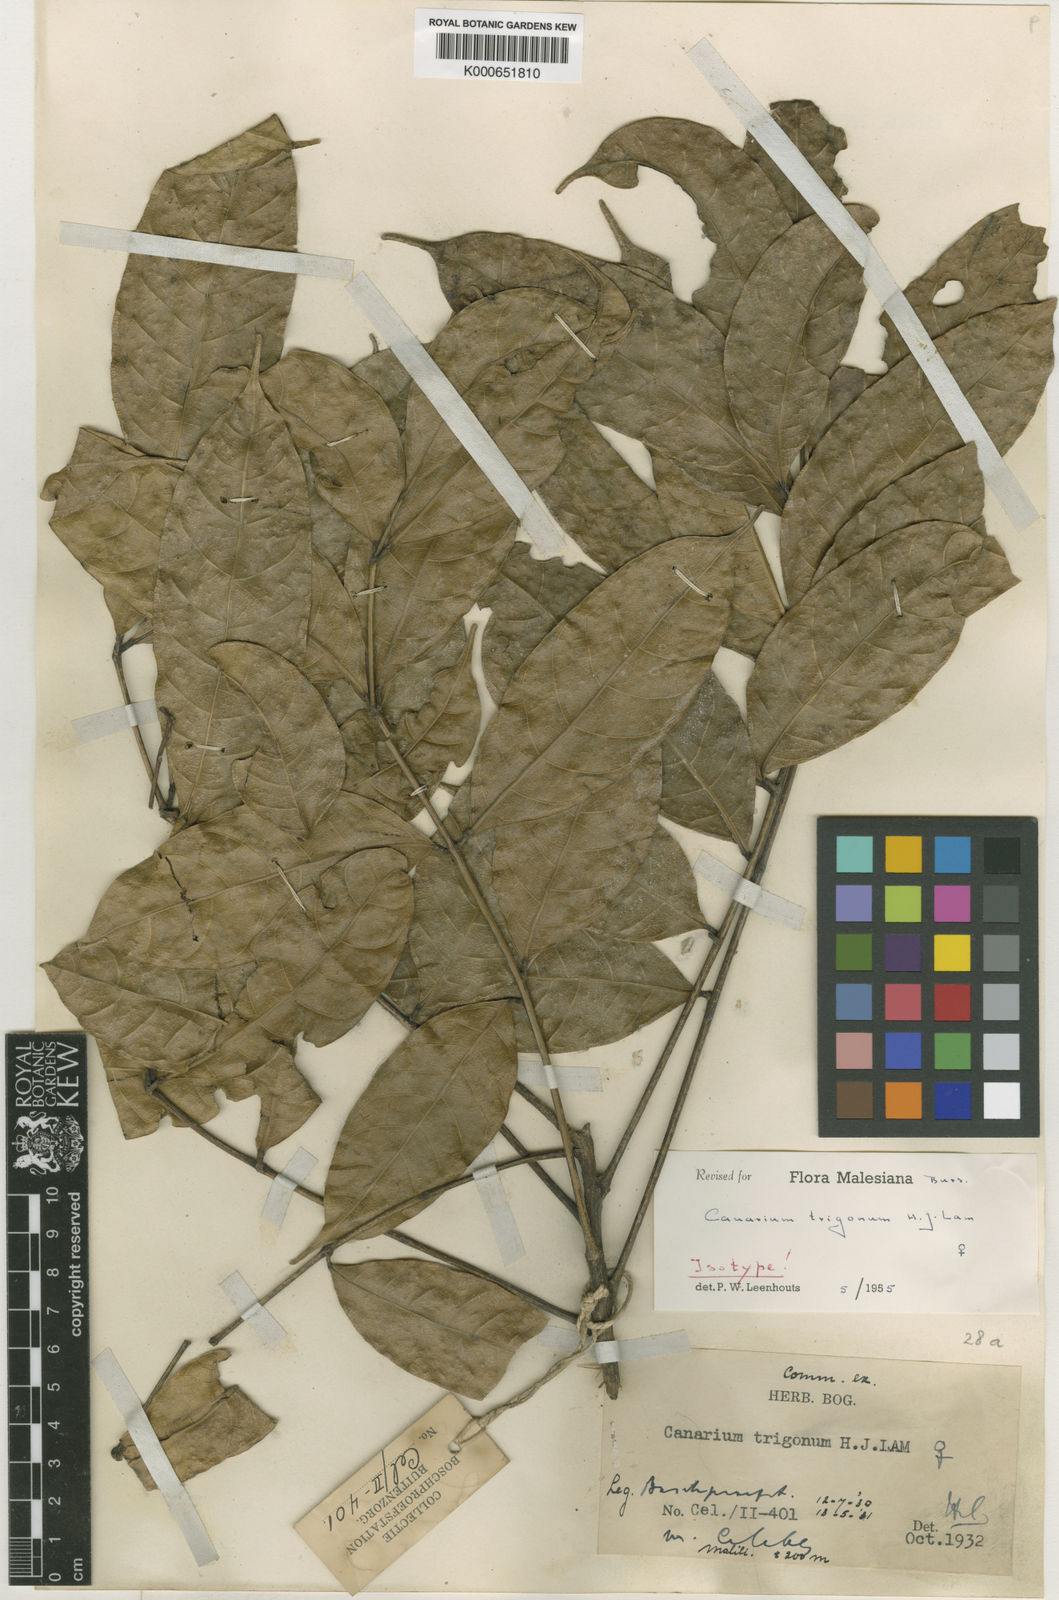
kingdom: Plantae
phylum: Tracheophyta
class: Magnoliopsida
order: Sapindales
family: Burseraceae
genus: Canarium
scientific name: Canarium trigonum
